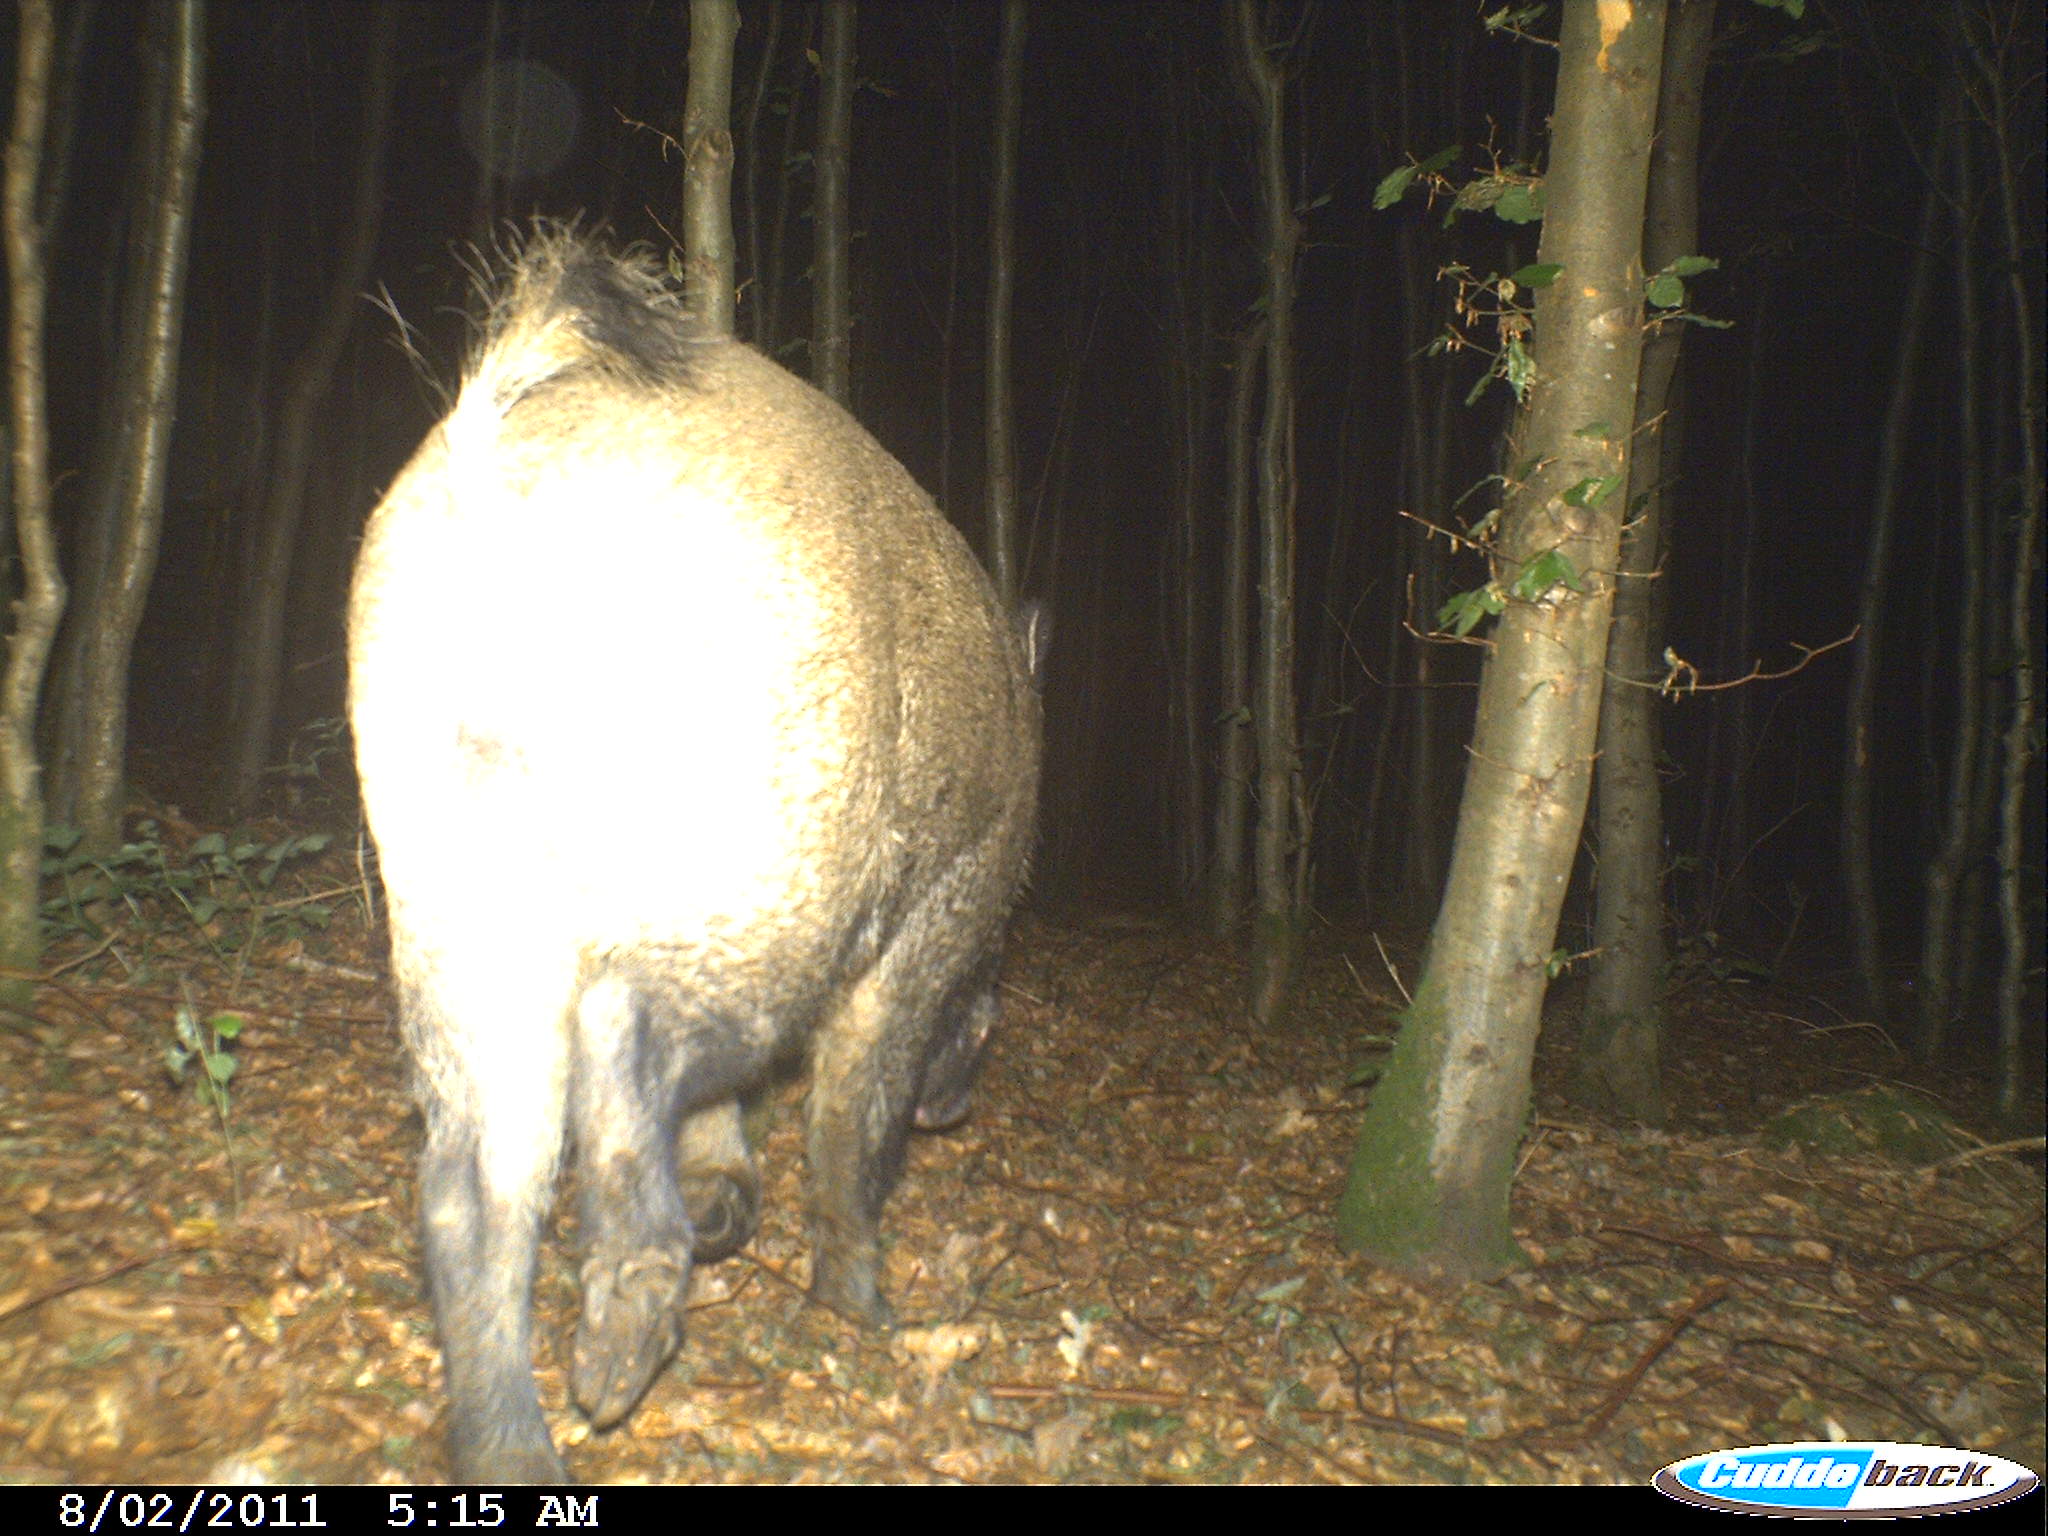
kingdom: Animalia
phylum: Chordata
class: Mammalia
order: Artiodactyla
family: Suidae
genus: Sus
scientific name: Sus scrofa
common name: Wild boar
